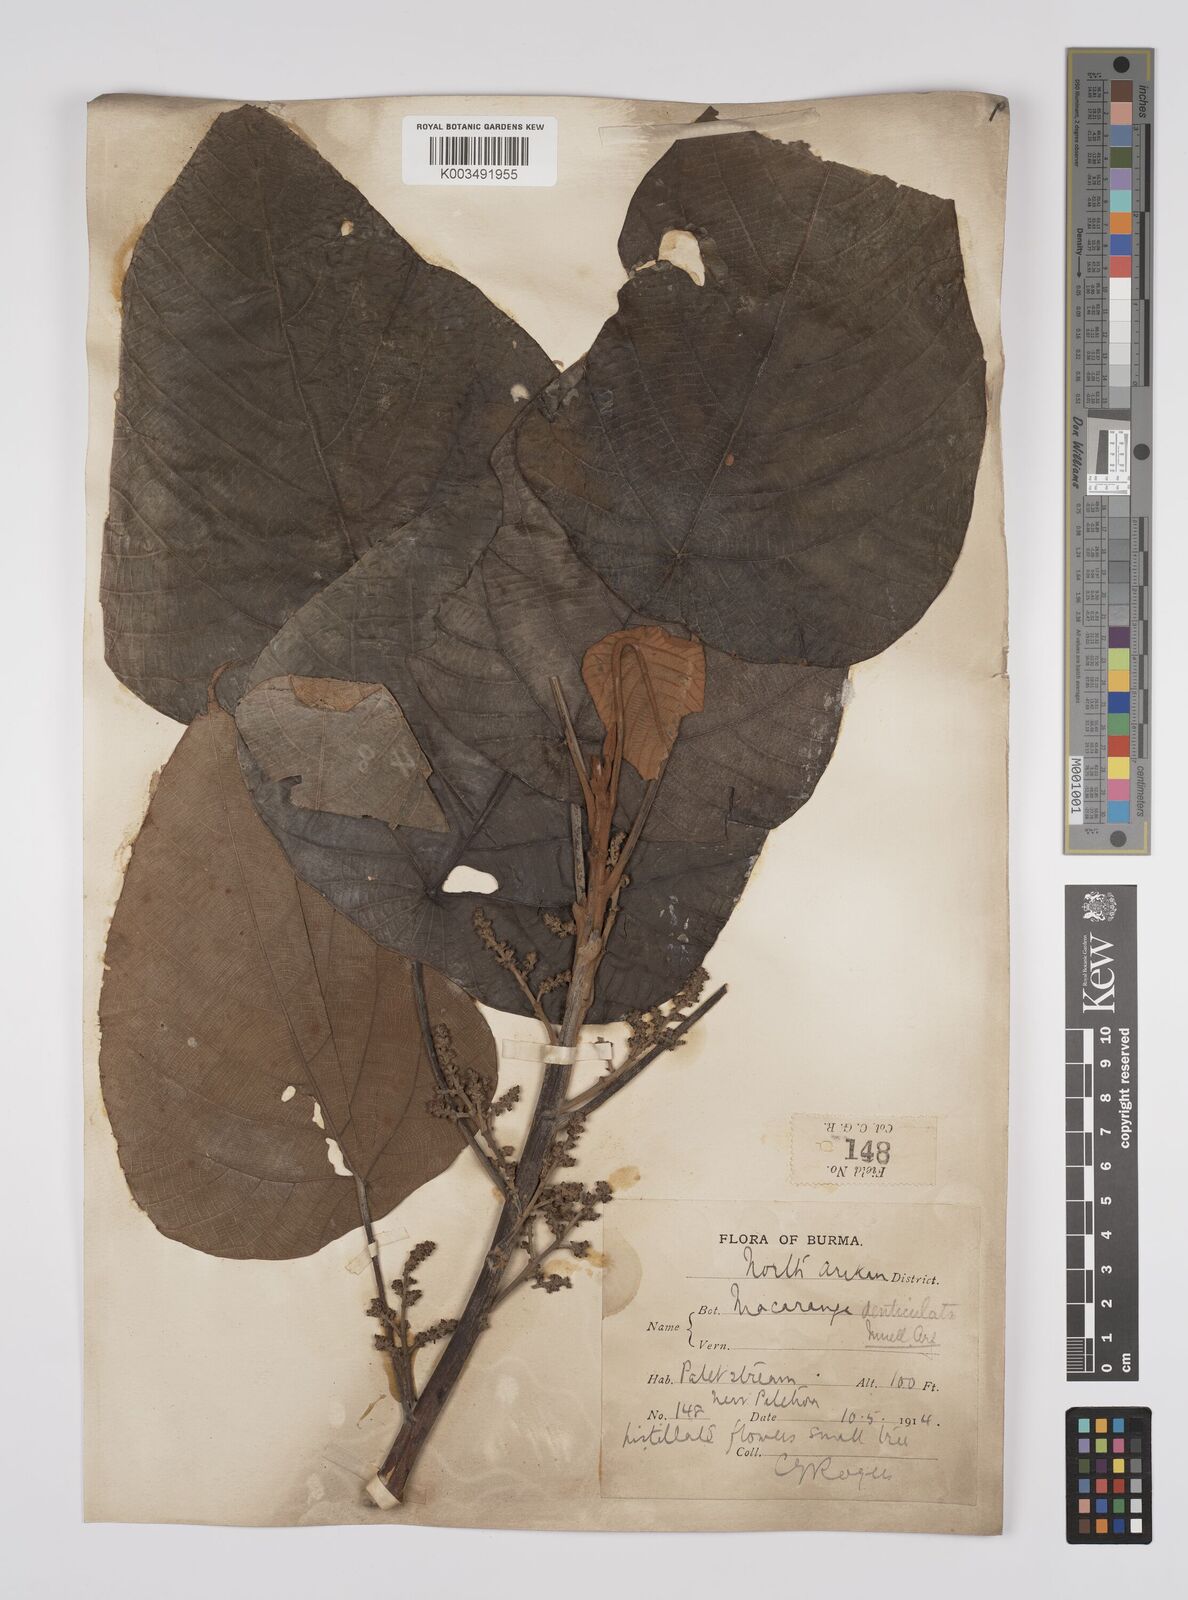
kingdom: Plantae
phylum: Tracheophyta
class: Magnoliopsida
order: Malpighiales
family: Euphorbiaceae
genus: Macaranga
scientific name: Macaranga denticulata
